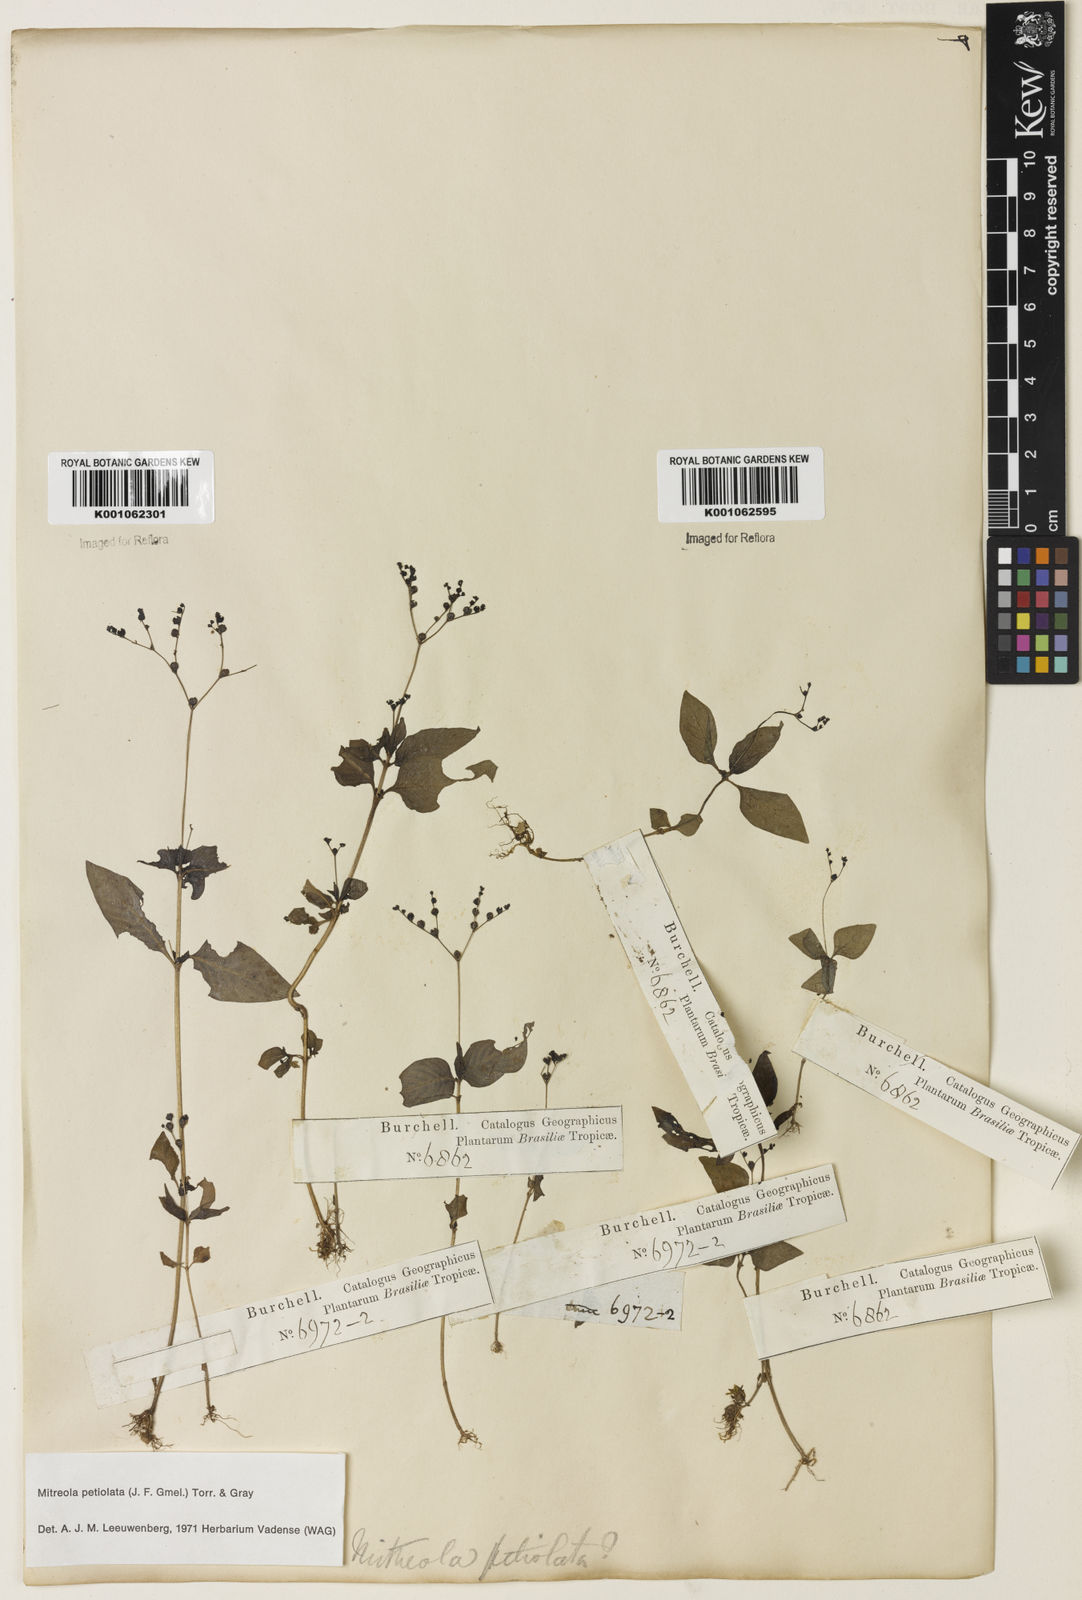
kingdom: Plantae
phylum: Tracheophyta
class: Magnoliopsida
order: Gentianales
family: Loganiaceae
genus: Mitreola
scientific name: Mitreola petiolata
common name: Lax hornpod
